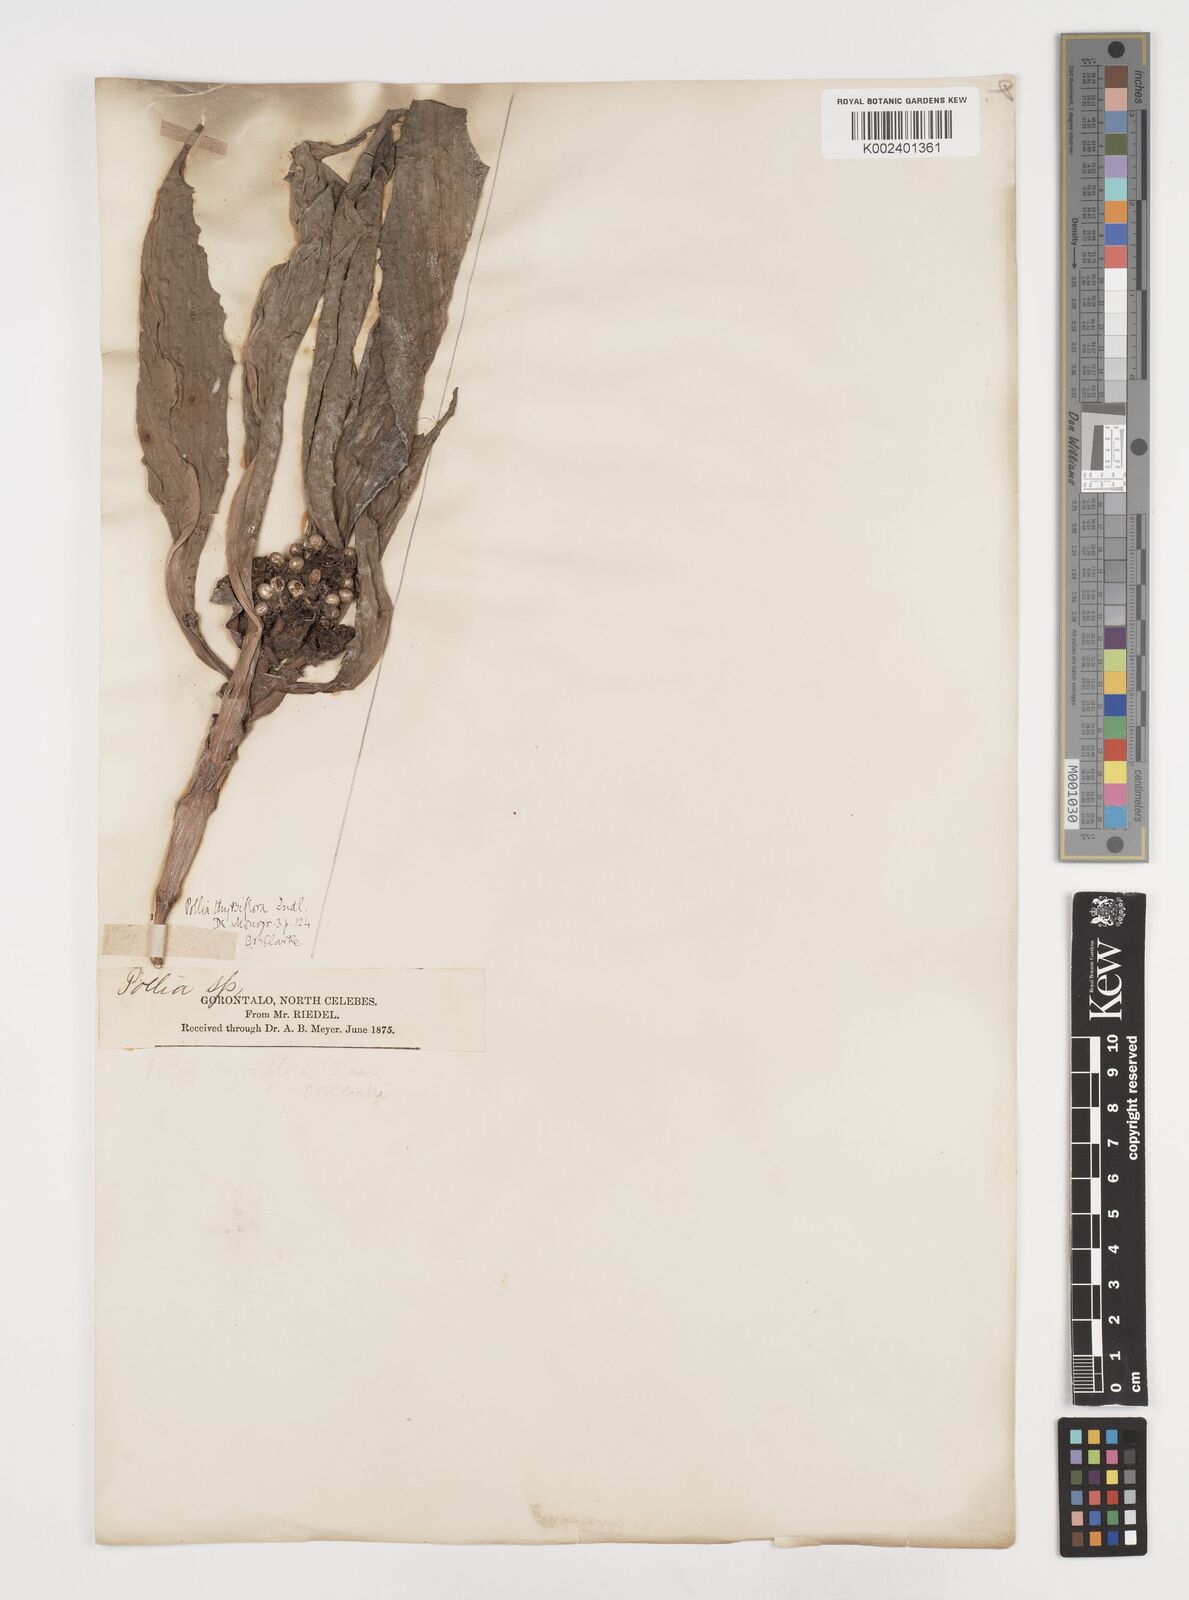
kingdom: Plantae
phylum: Tracheophyta
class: Liliopsida
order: Commelinales
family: Commelinaceae
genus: Pollia
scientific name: Pollia thyrsiflora
